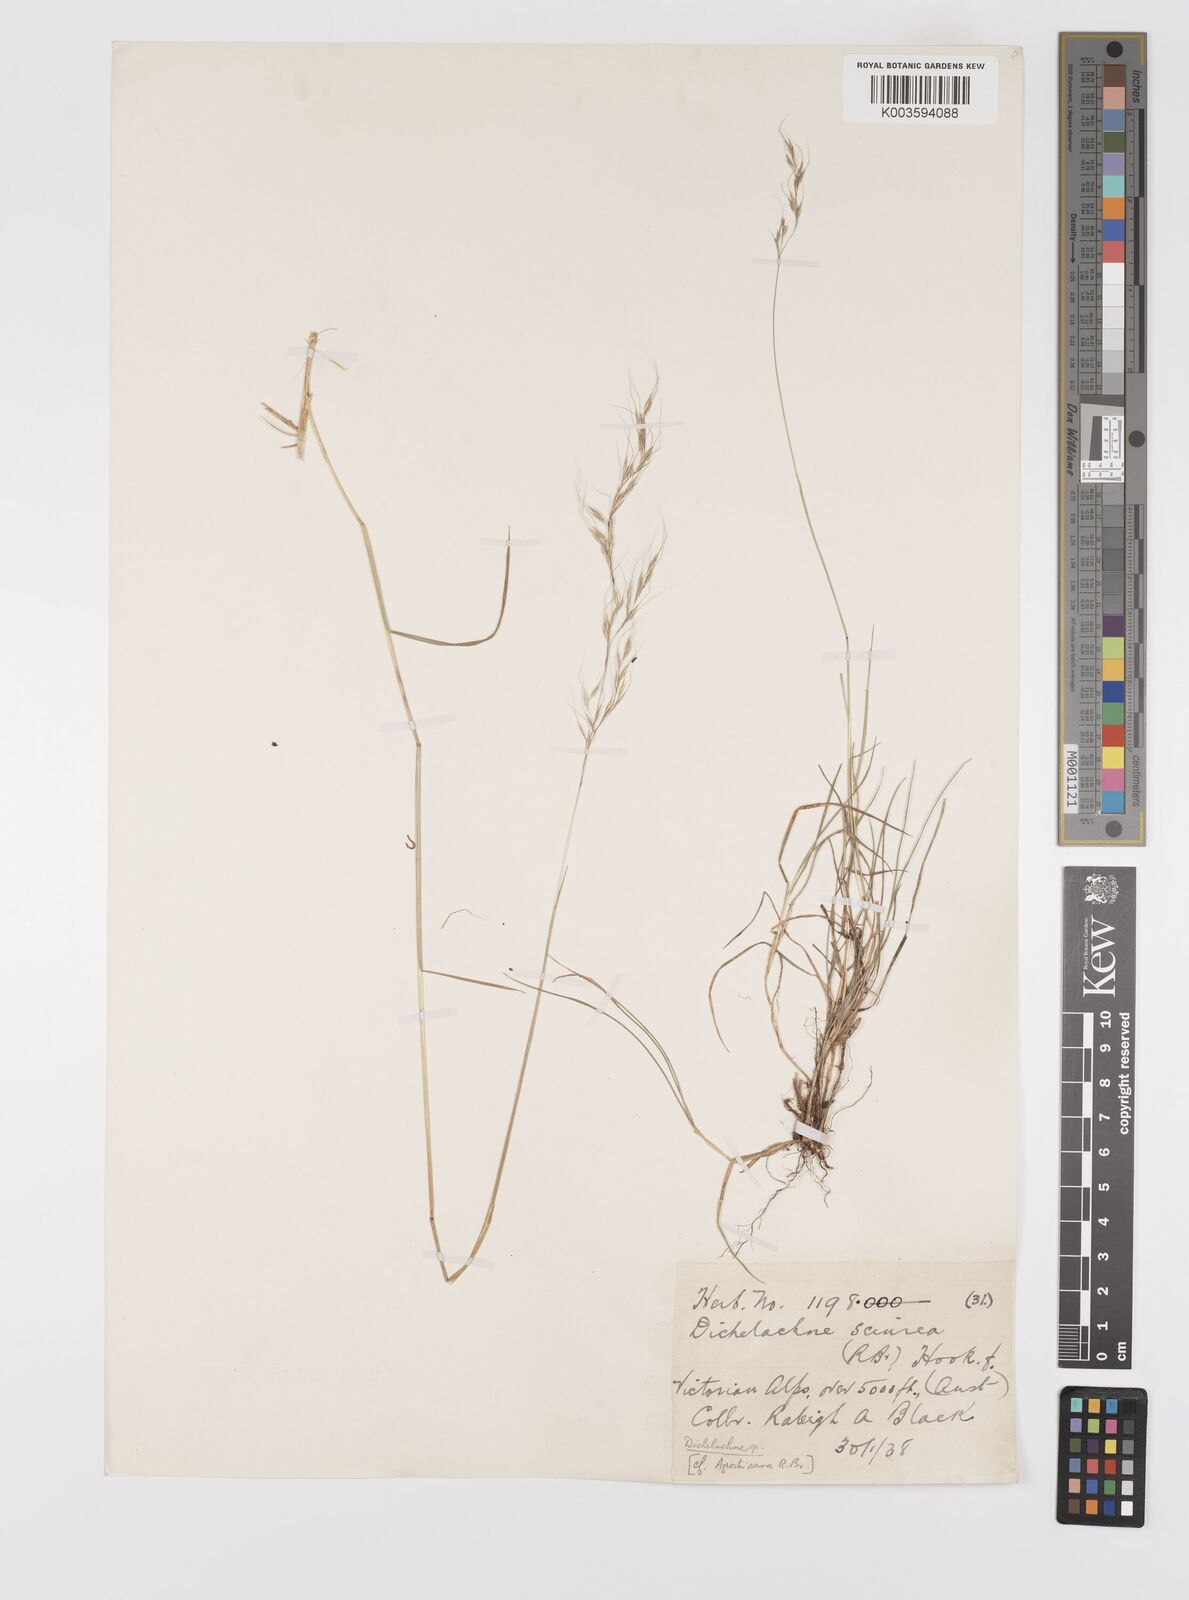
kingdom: Plantae
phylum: Tracheophyta
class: Liliopsida
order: Poales
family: Poaceae
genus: Dichelachne
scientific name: Dichelachne rara
